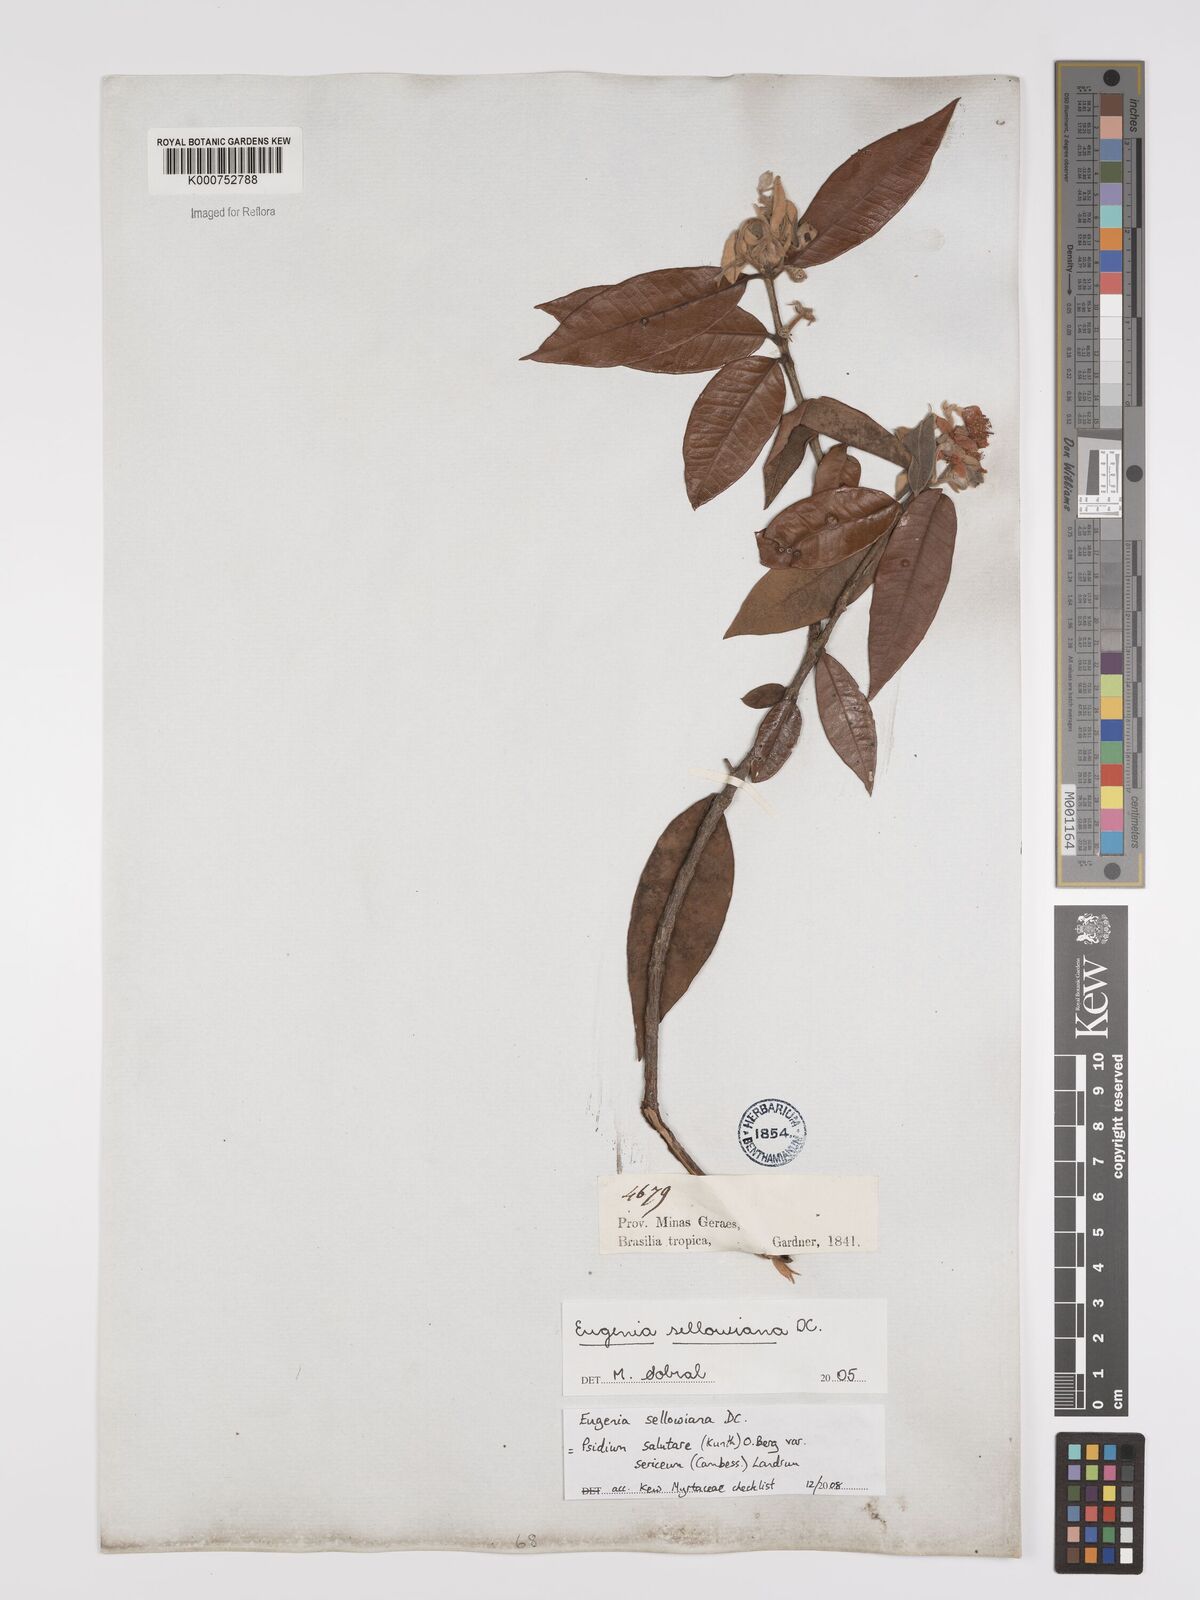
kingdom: Plantae
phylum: Tracheophyta
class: Magnoliopsida
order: Myrtales
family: Myrtaceae
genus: Psidium
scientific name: Psidium salutare
